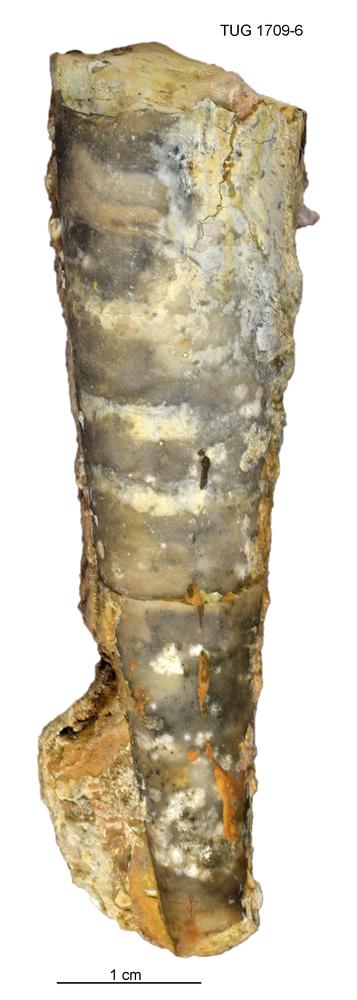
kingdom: Animalia
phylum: Mollusca
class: Cephalopoda
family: Gonioceratidae
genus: Hoeloceras
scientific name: Hoeloceras muroni
